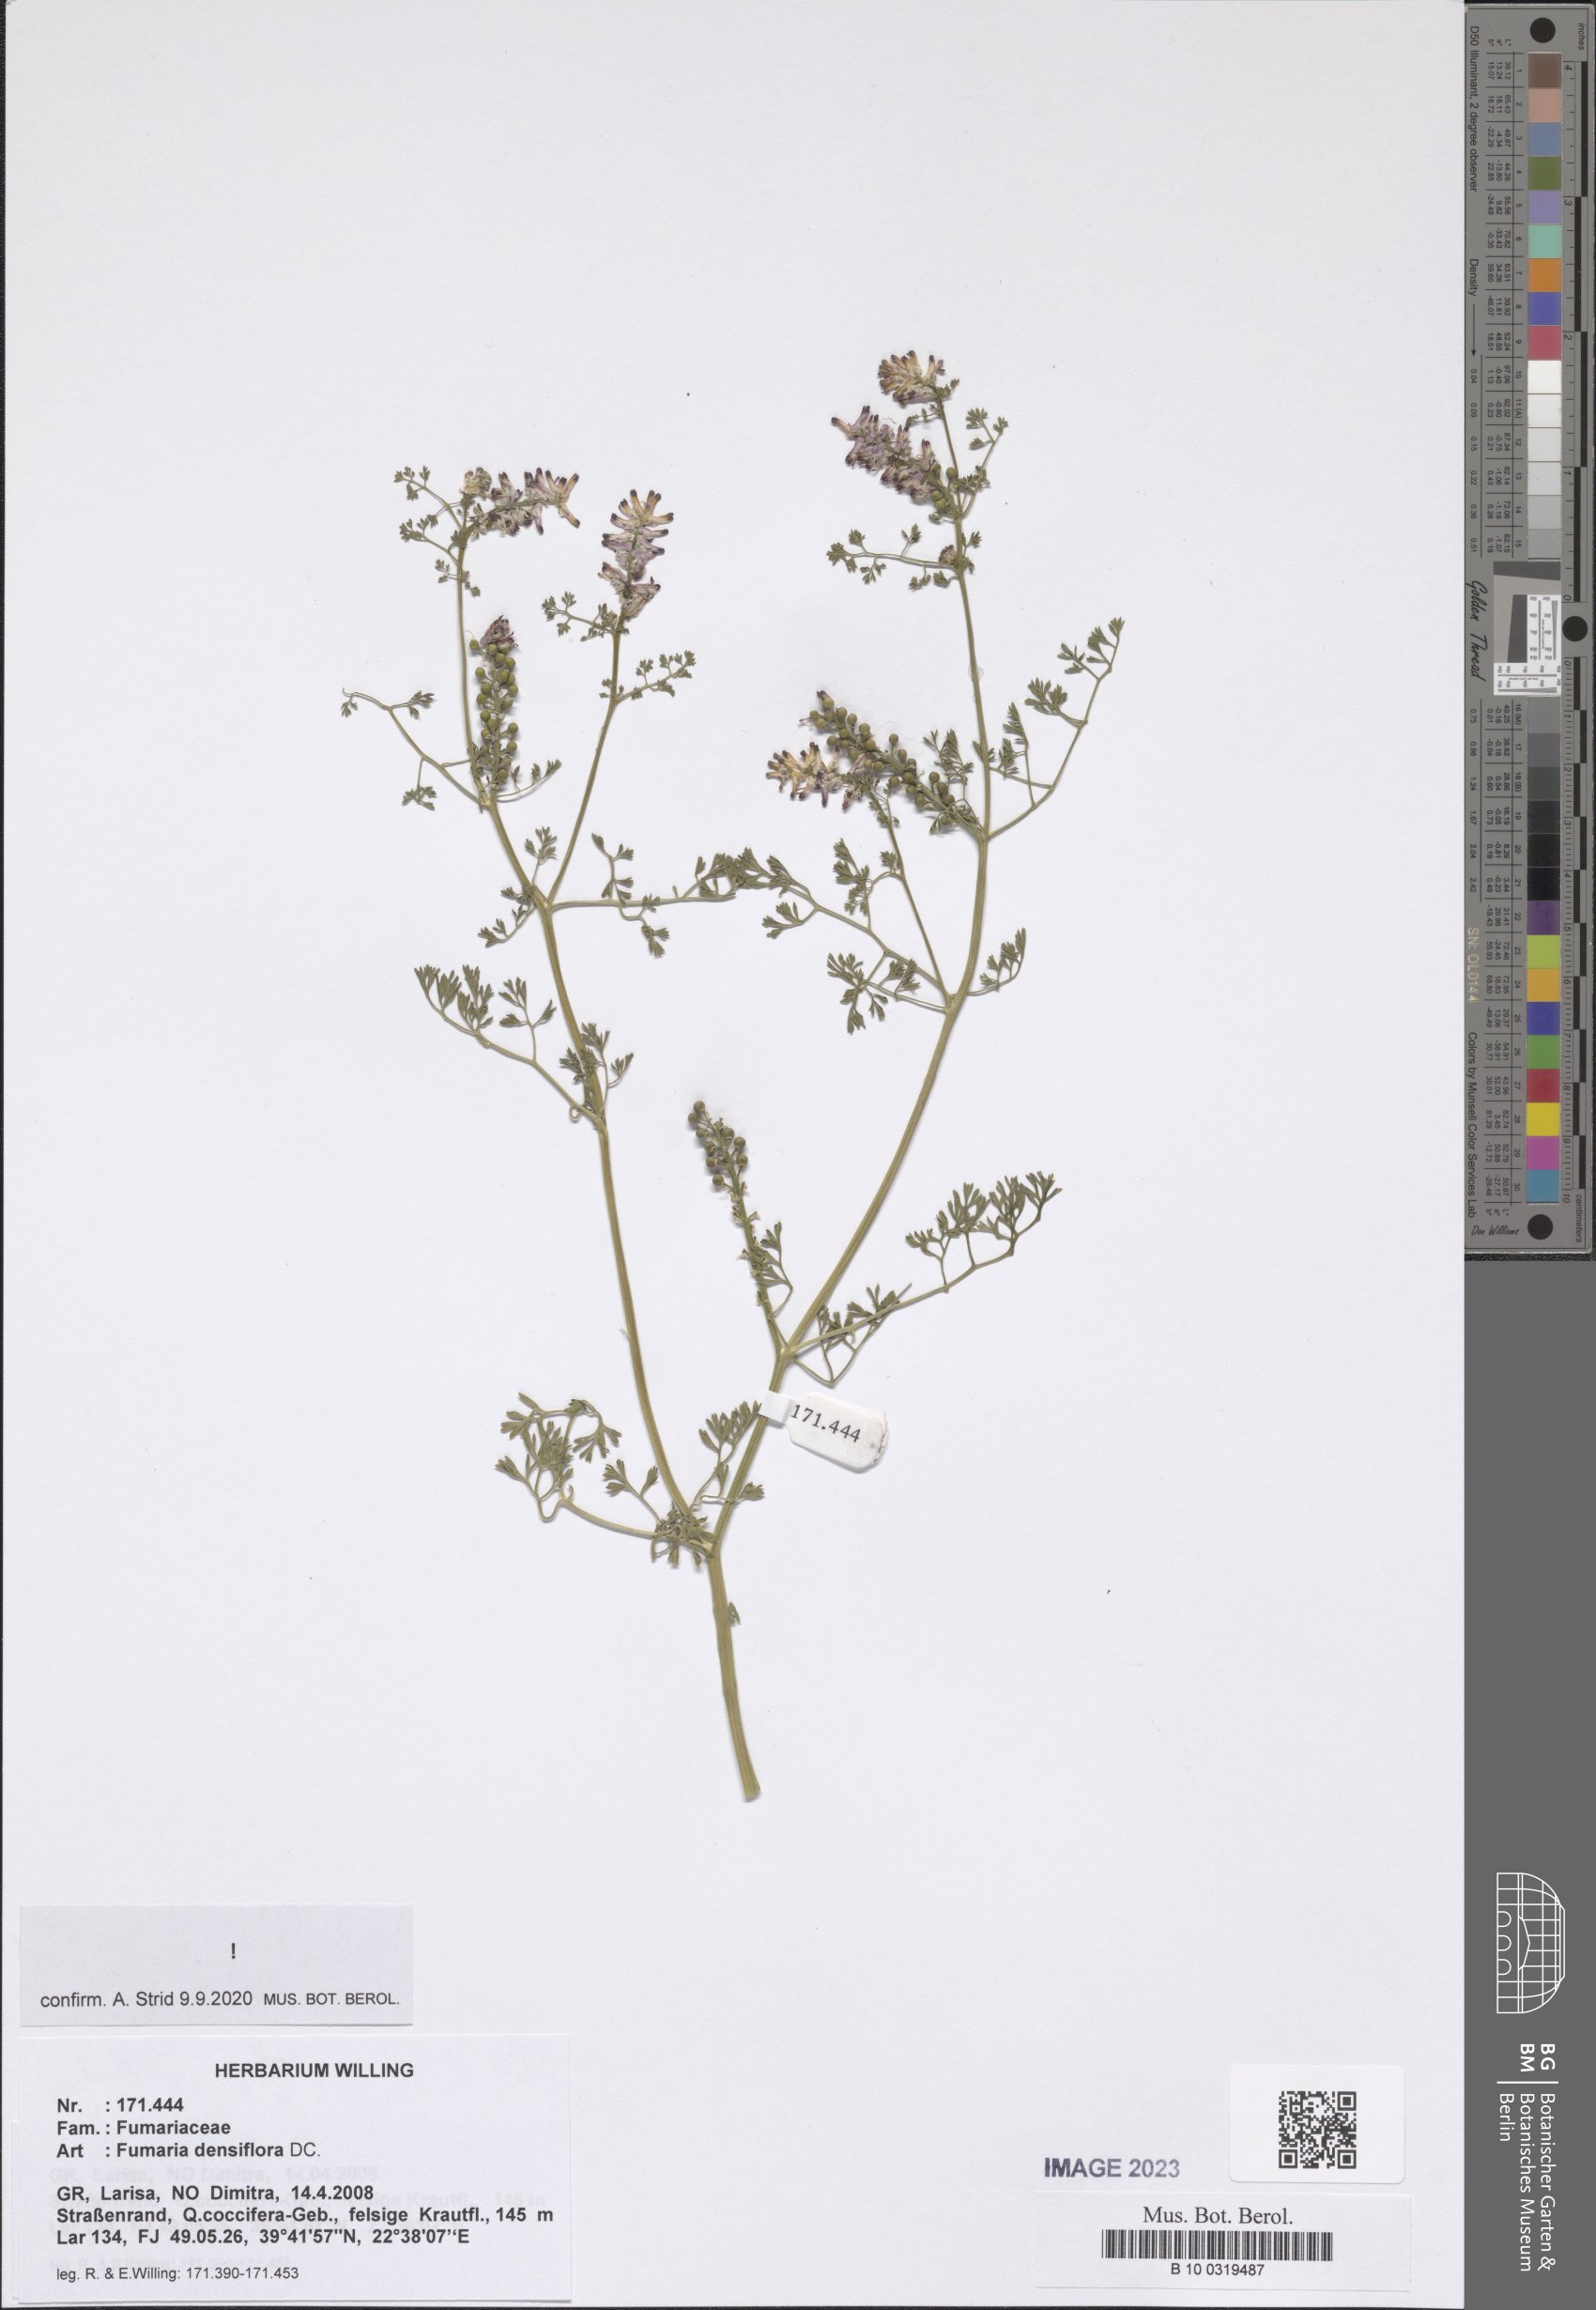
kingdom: Plantae
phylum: Tracheophyta
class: Magnoliopsida
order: Ranunculales
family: Papaveraceae
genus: Fumaria
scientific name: Fumaria densiflora
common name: Dense-flowered fumitory
